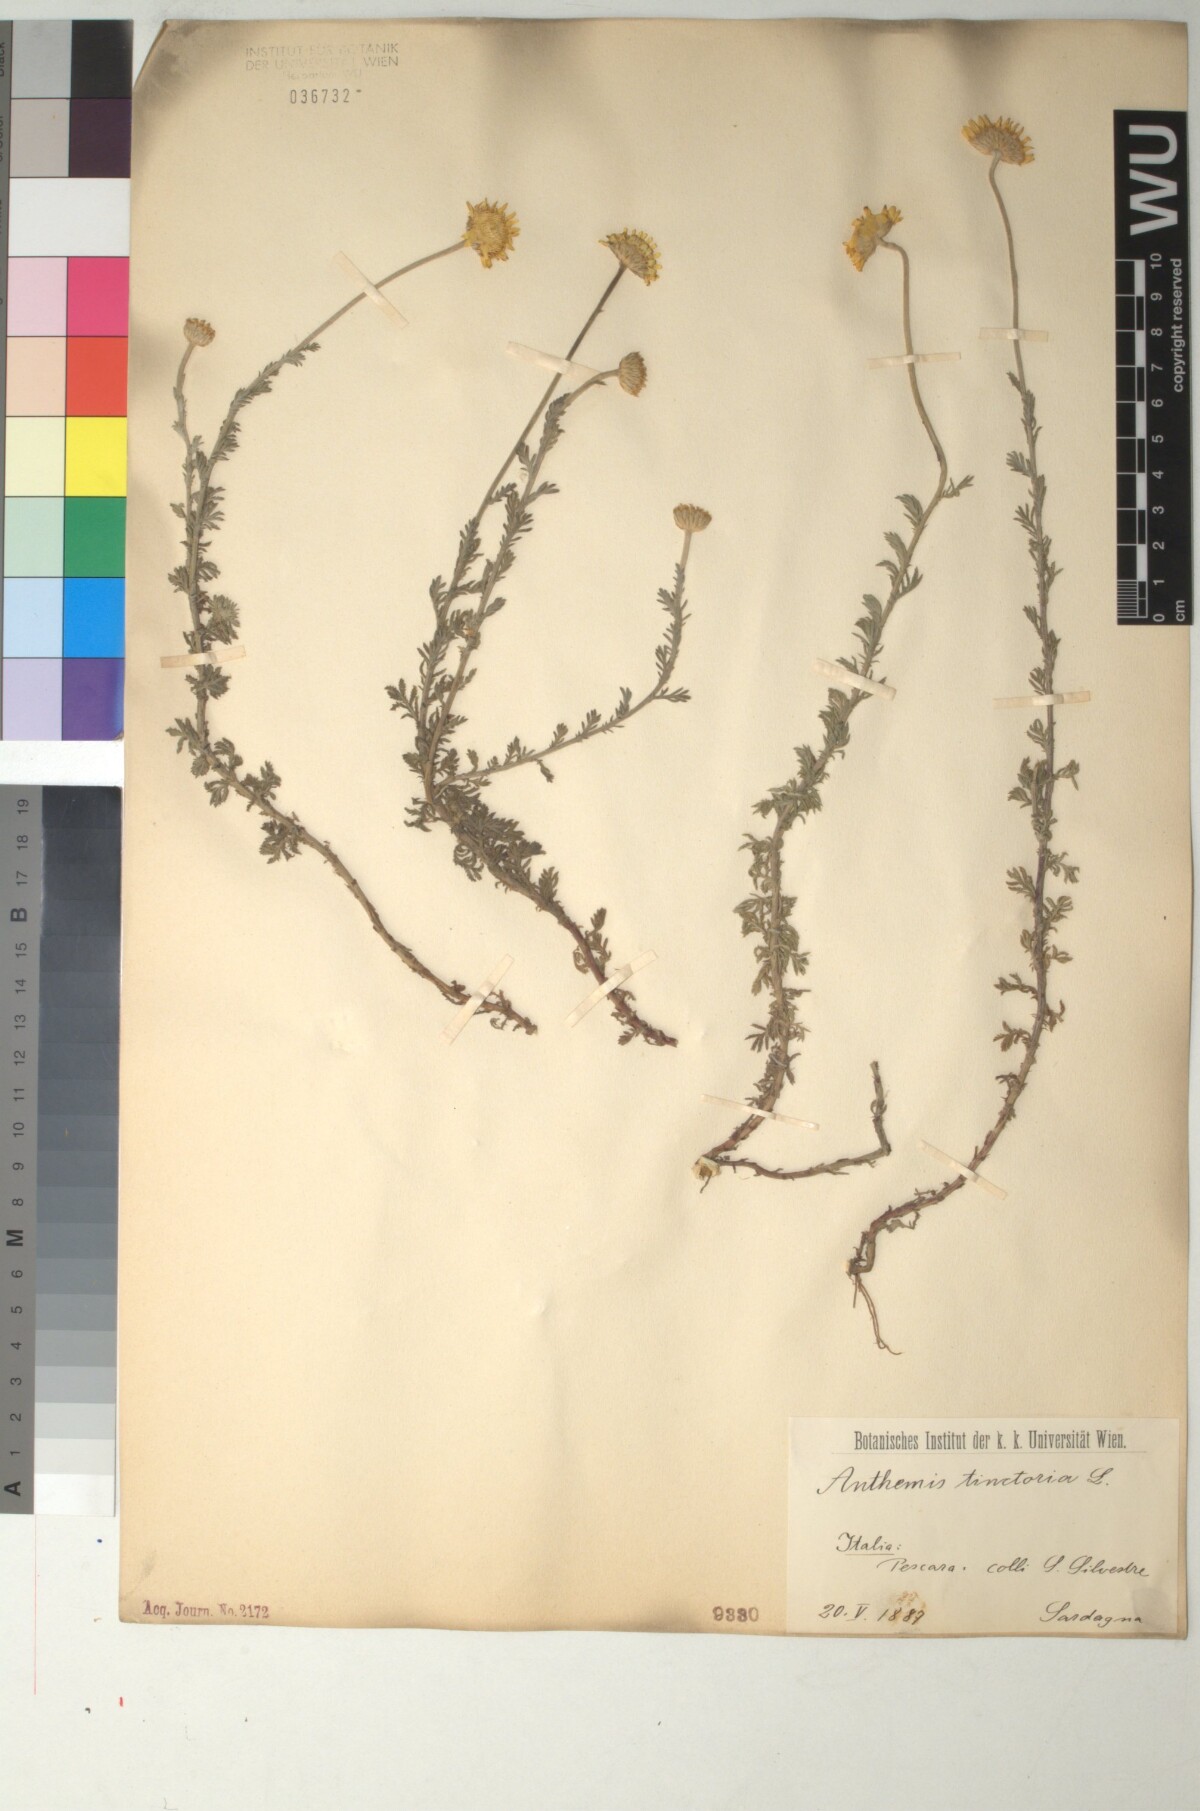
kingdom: Plantae
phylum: Tracheophyta
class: Magnoliopsida
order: Asterales
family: Asteraceae
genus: Cota
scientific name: Cota tinctoria
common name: Golden chamomile
